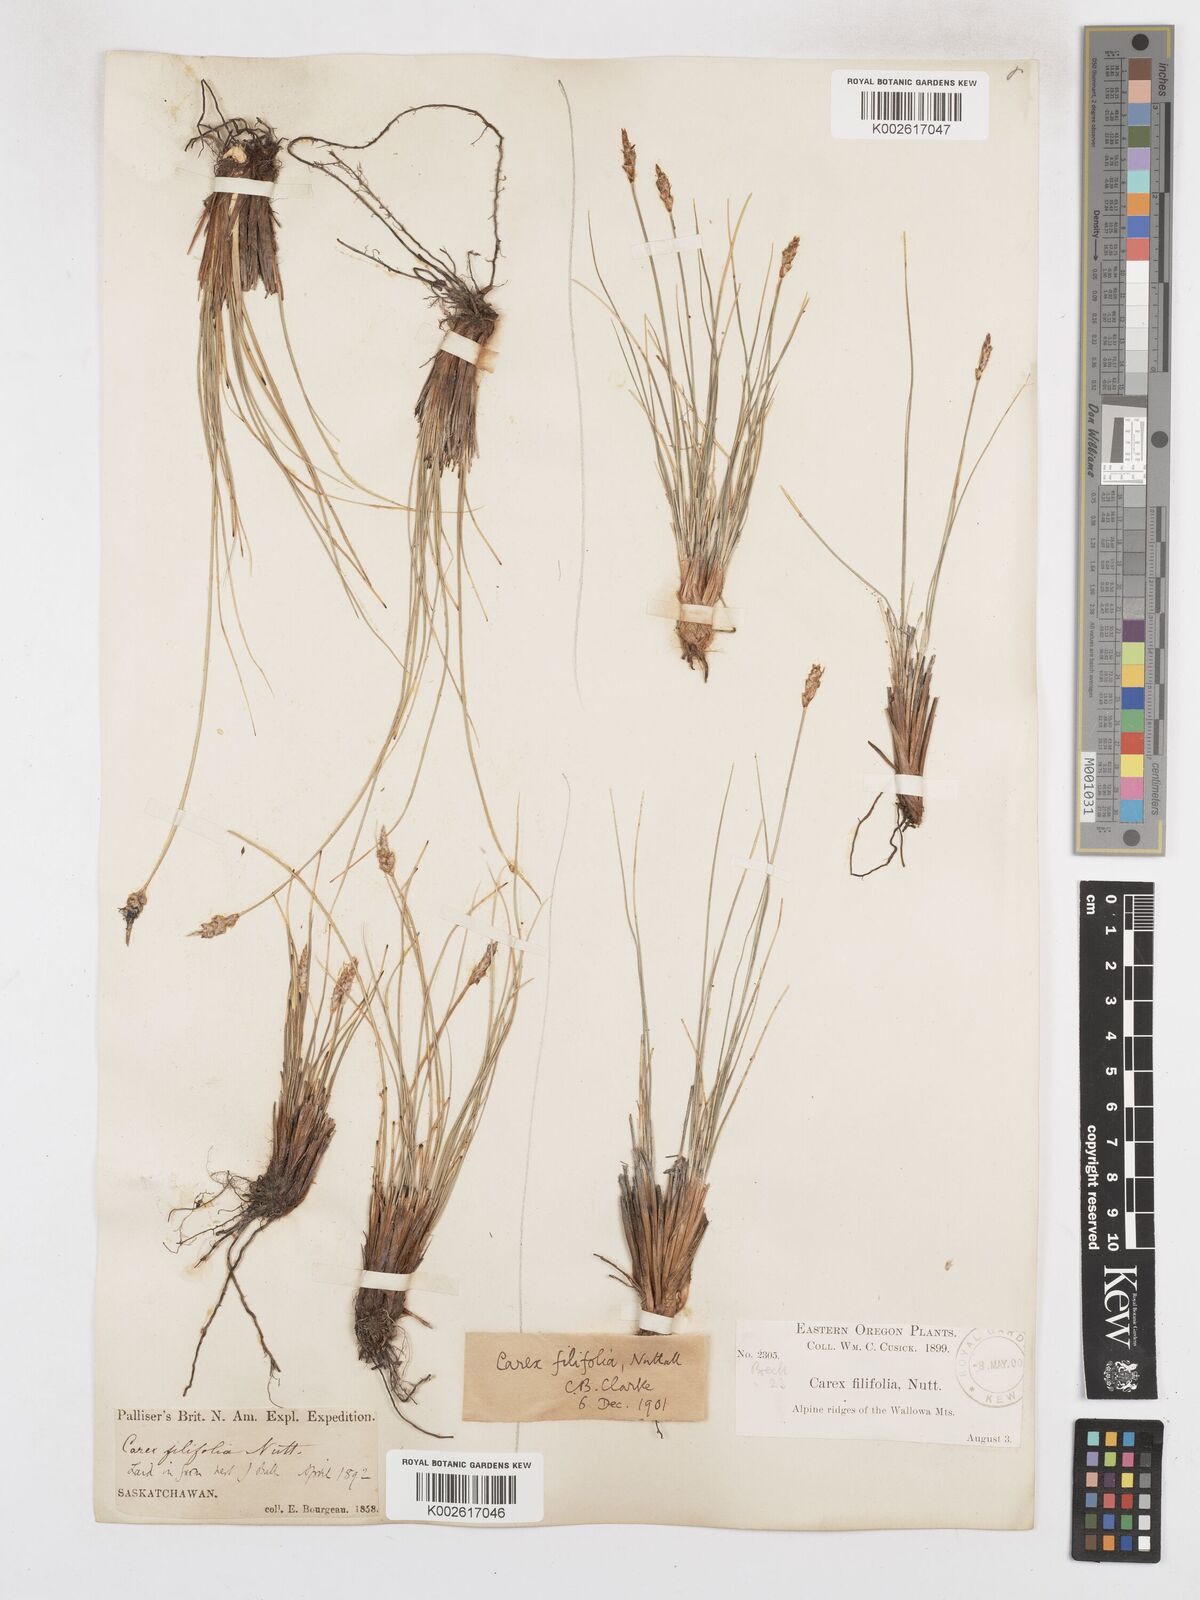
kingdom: Plantae
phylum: Tracheophyta
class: Liliopsida
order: Poales
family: Cyperaceae
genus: Carex
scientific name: Carex filifolia
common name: Threadleaf sedge
